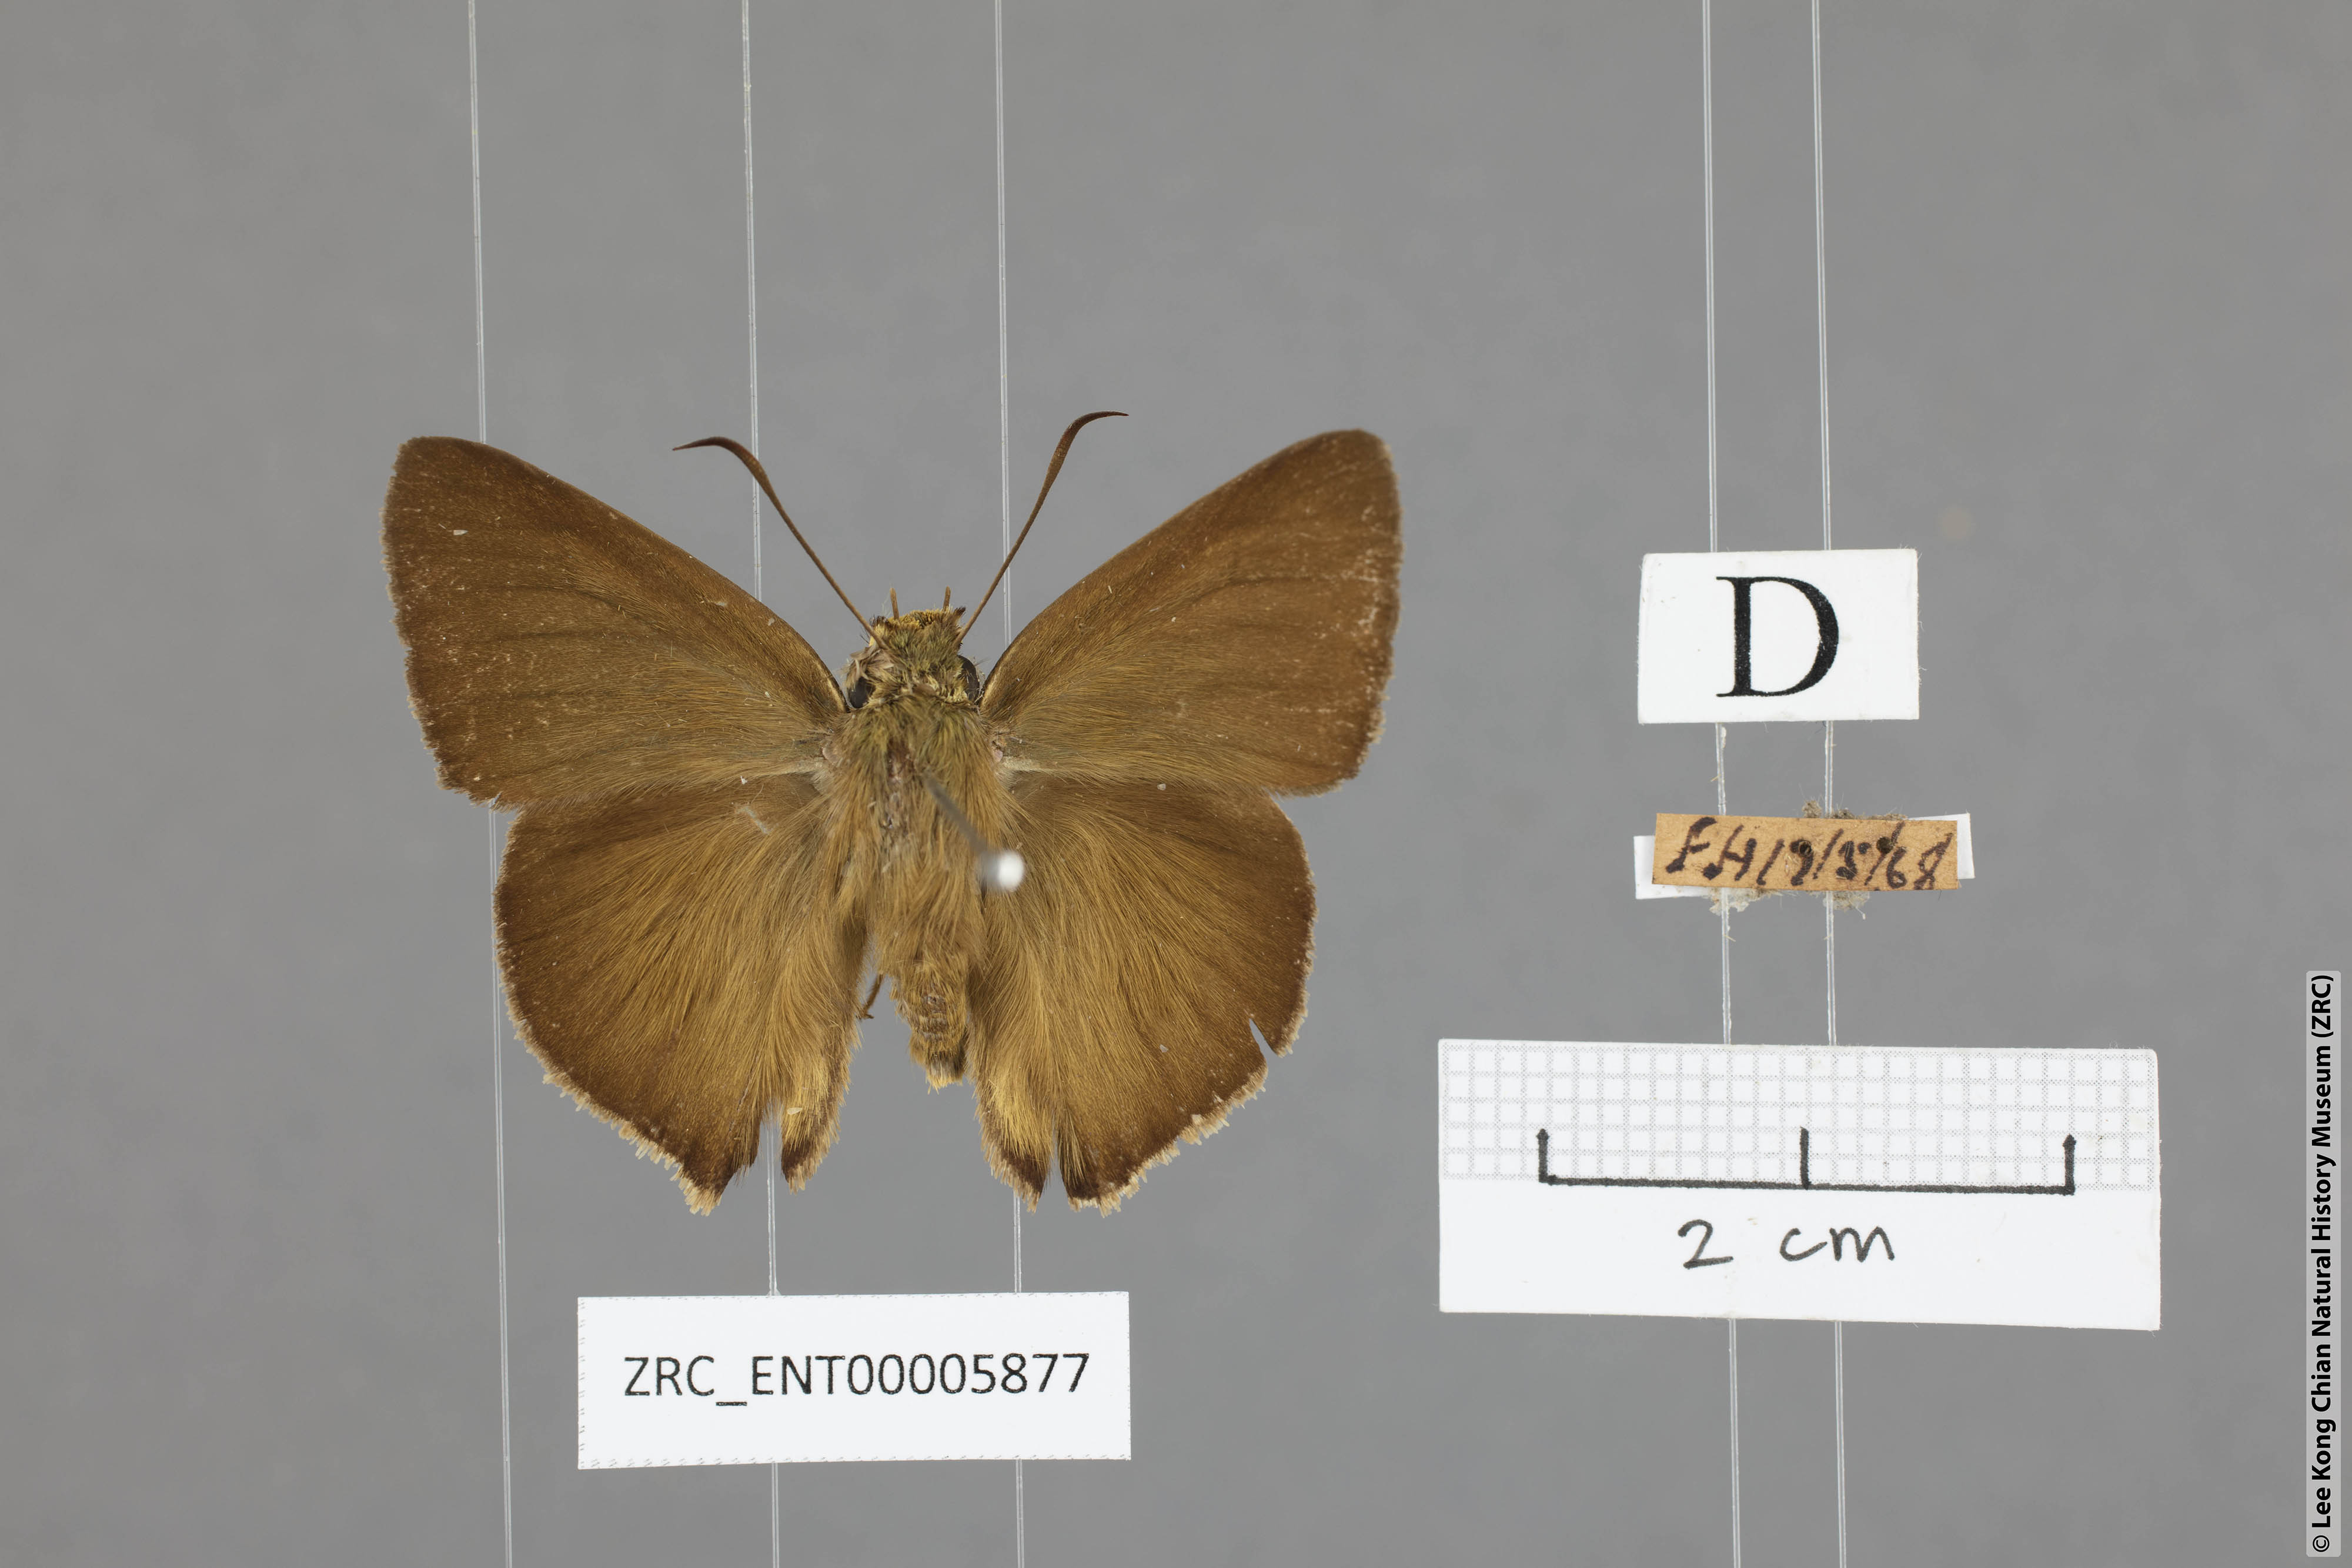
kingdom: Animalia
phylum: Arthropoda
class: Insecta
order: Lepidoptera
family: Hesperiidae
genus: Hasora
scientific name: Hasora mus
